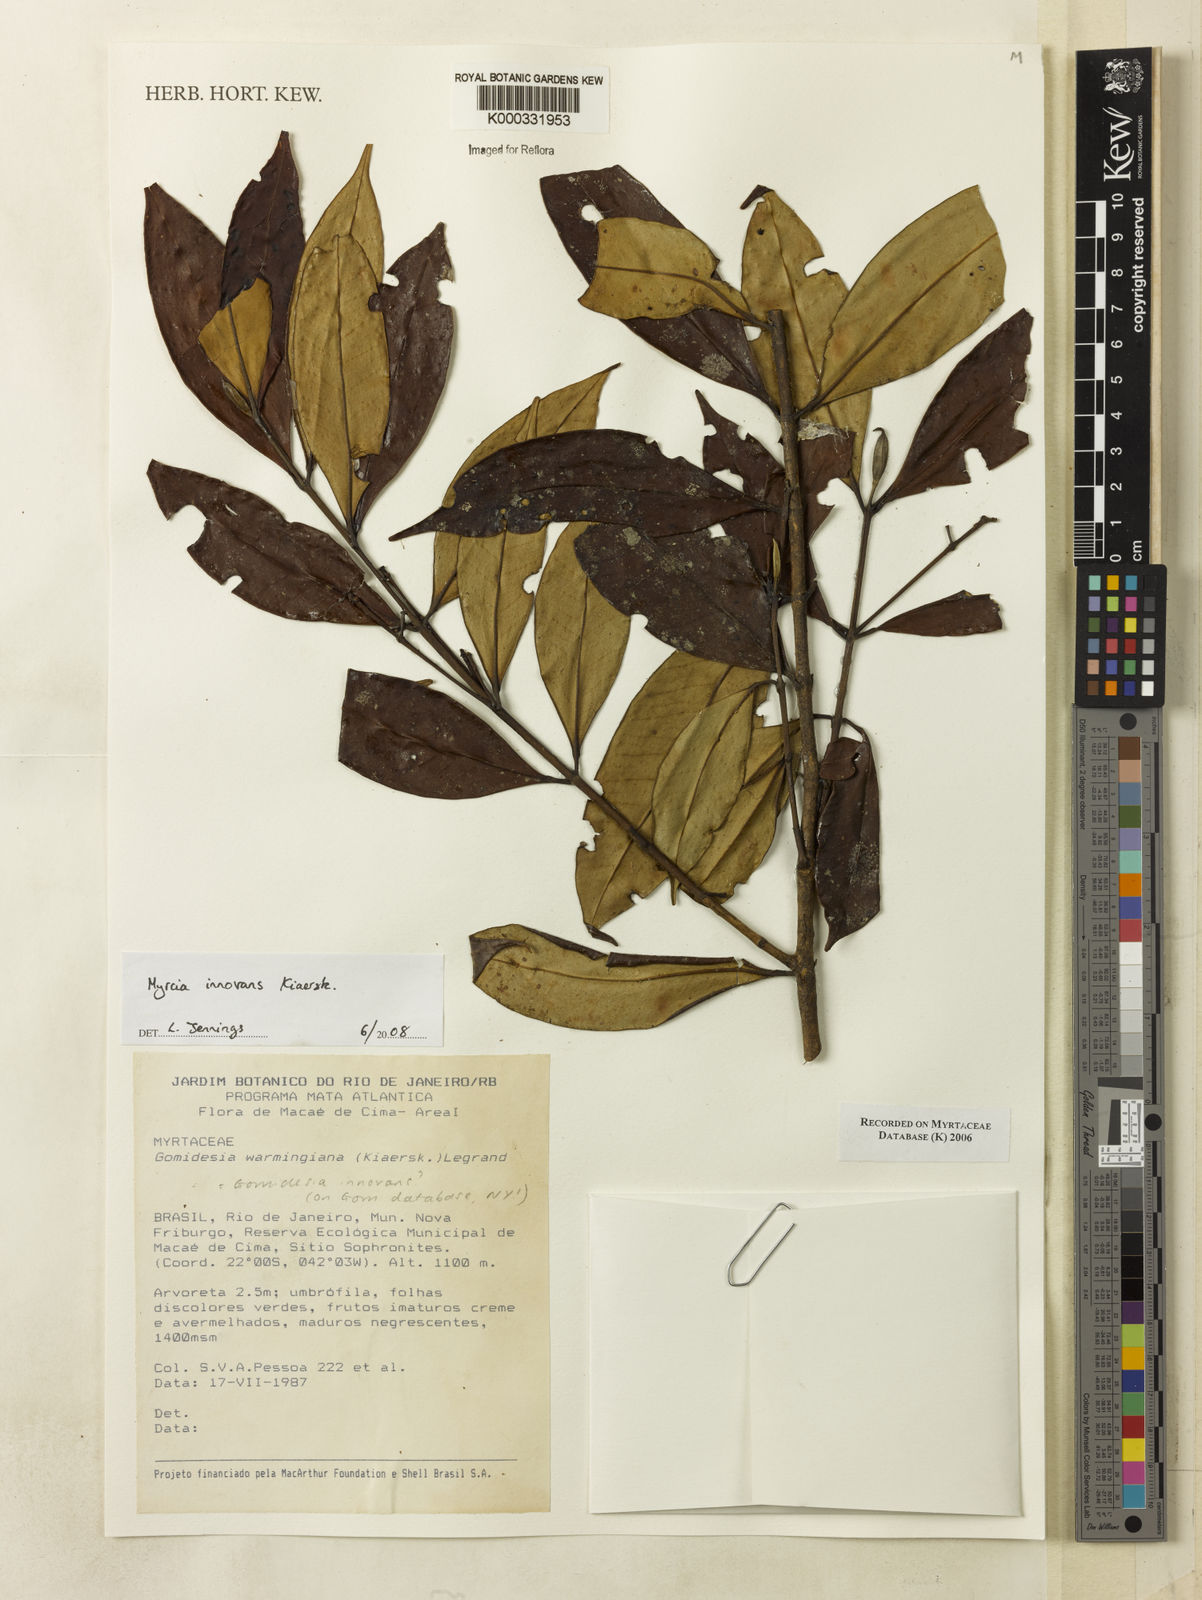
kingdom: Plantae
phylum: Tracheophyta
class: Magnoliopsida
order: Myrtales
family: Myrtaceae
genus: Myrcia
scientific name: Myrcia innovans
